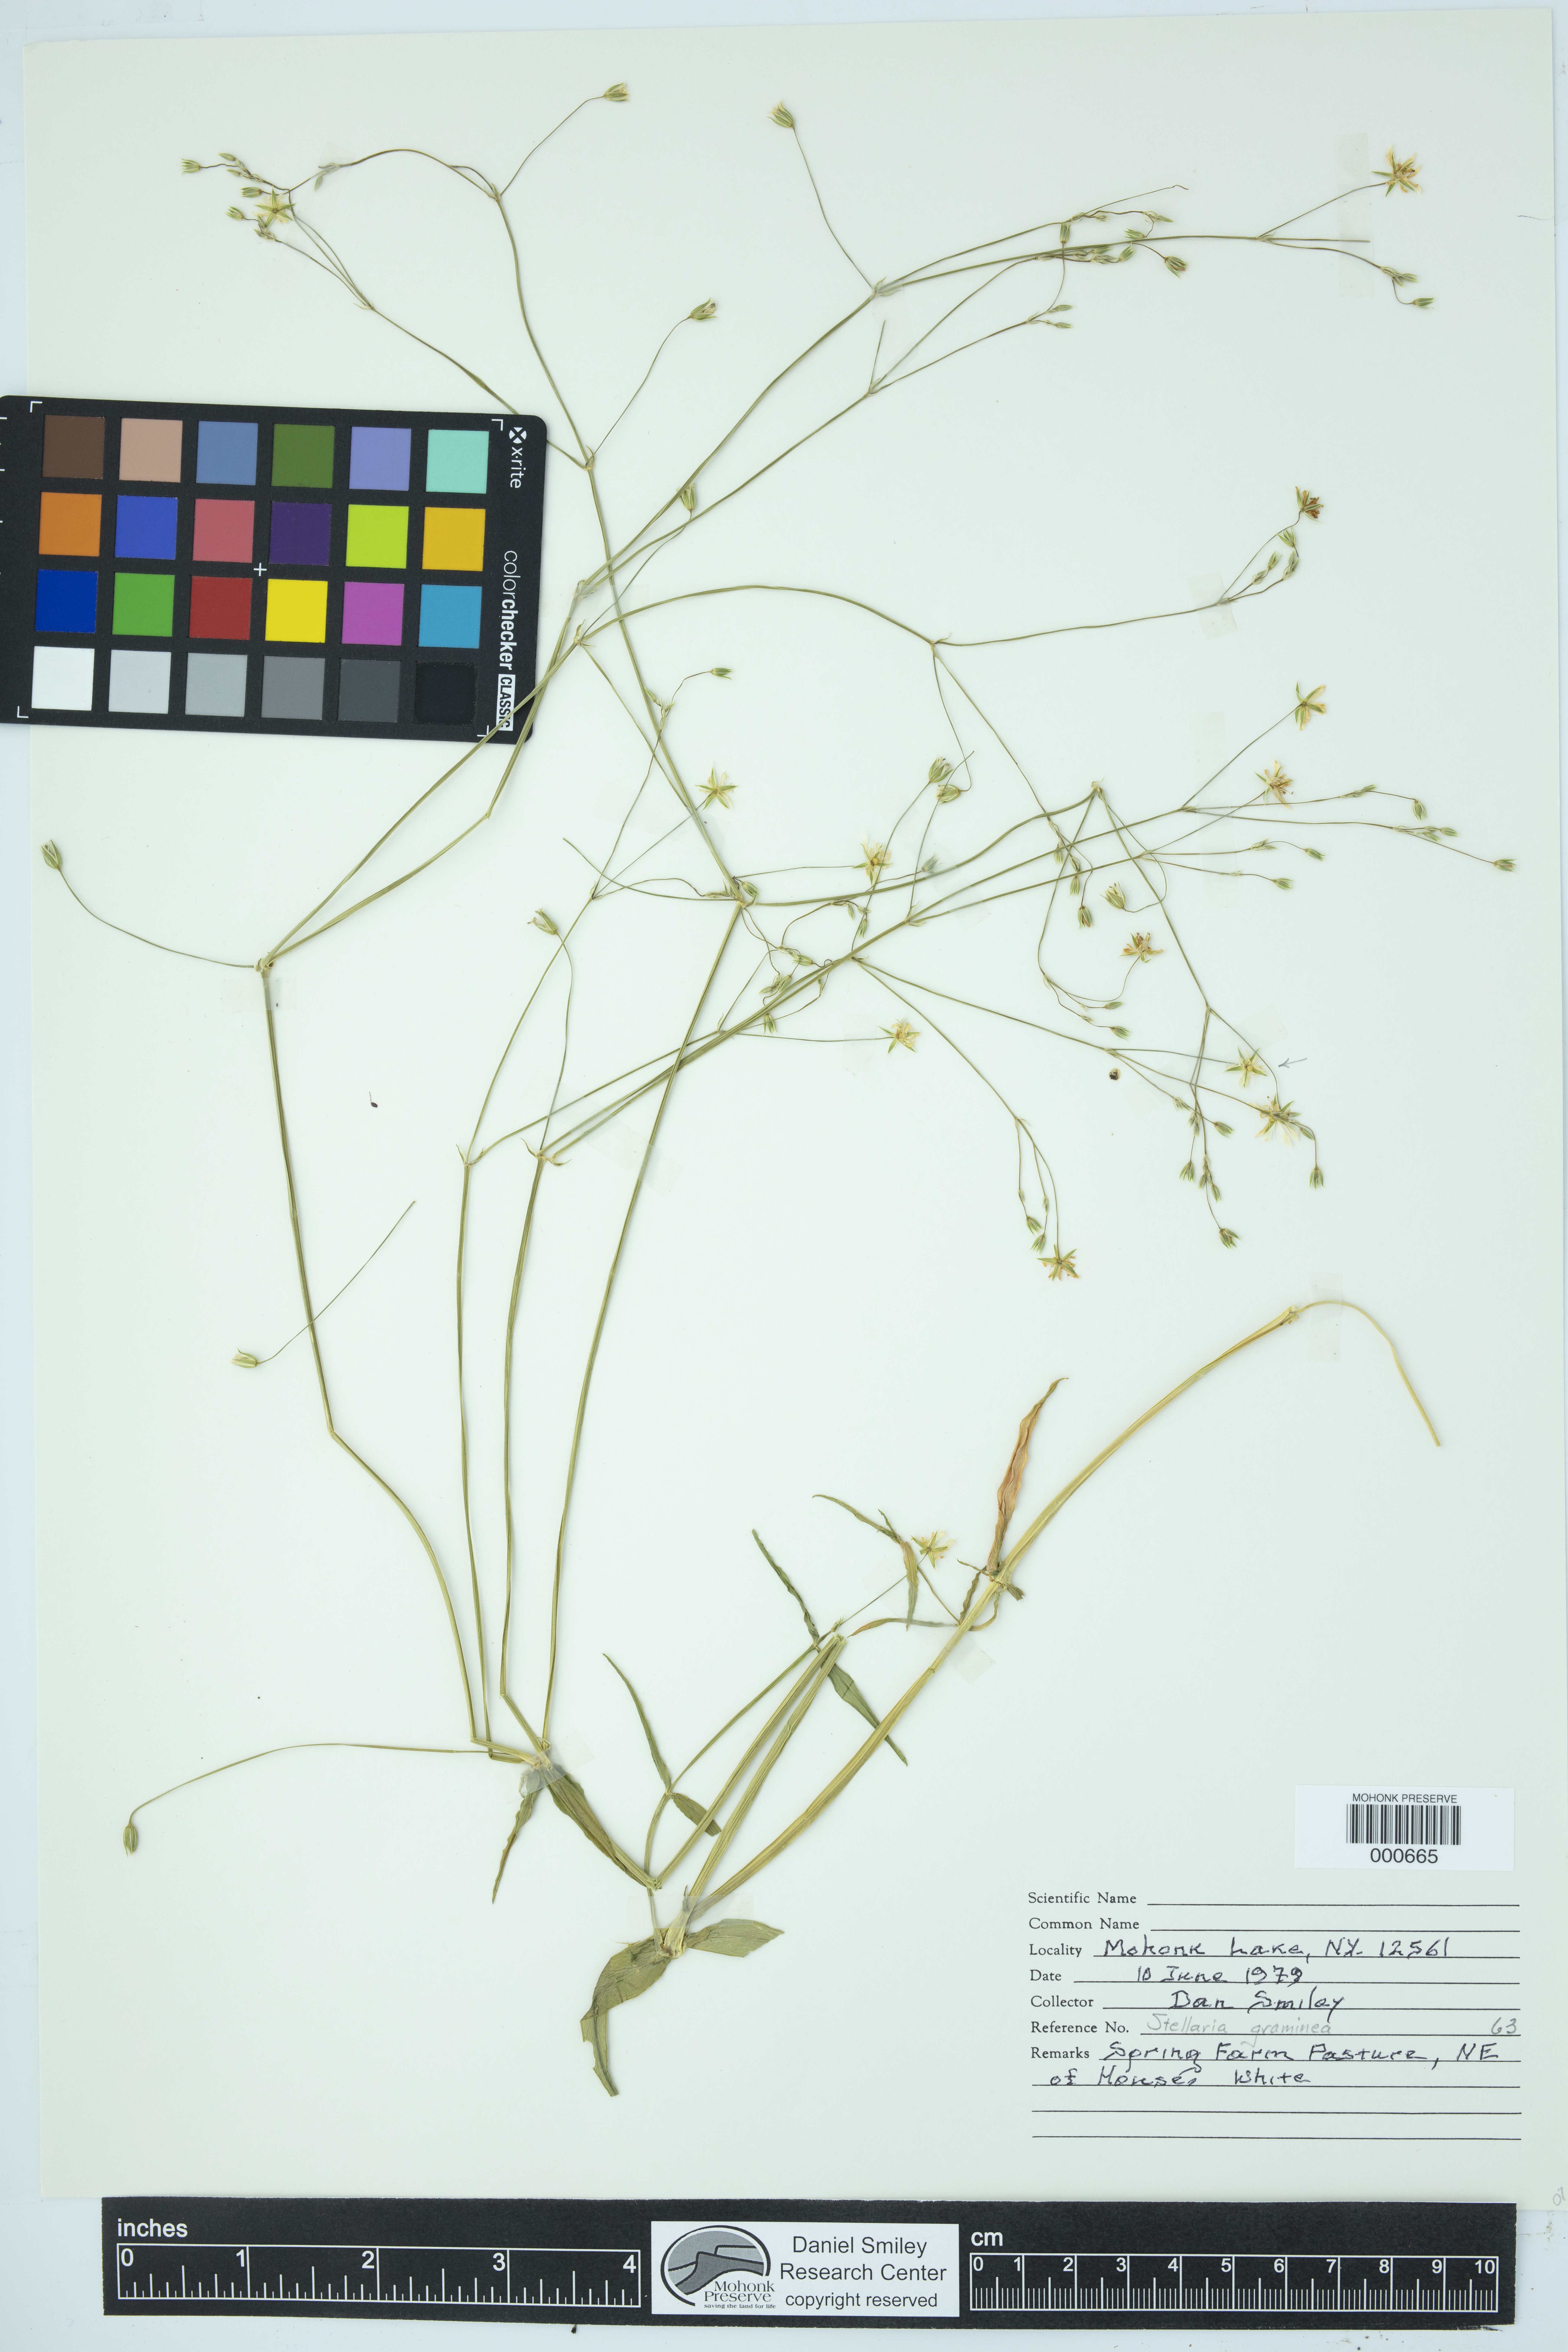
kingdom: Plantae
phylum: Tracheophyta
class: Magnoliopsida
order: Caryophyllales
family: Caryophyllaceae
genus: Stellaria
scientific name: Stellaria graminea
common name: Grass-like starwort
